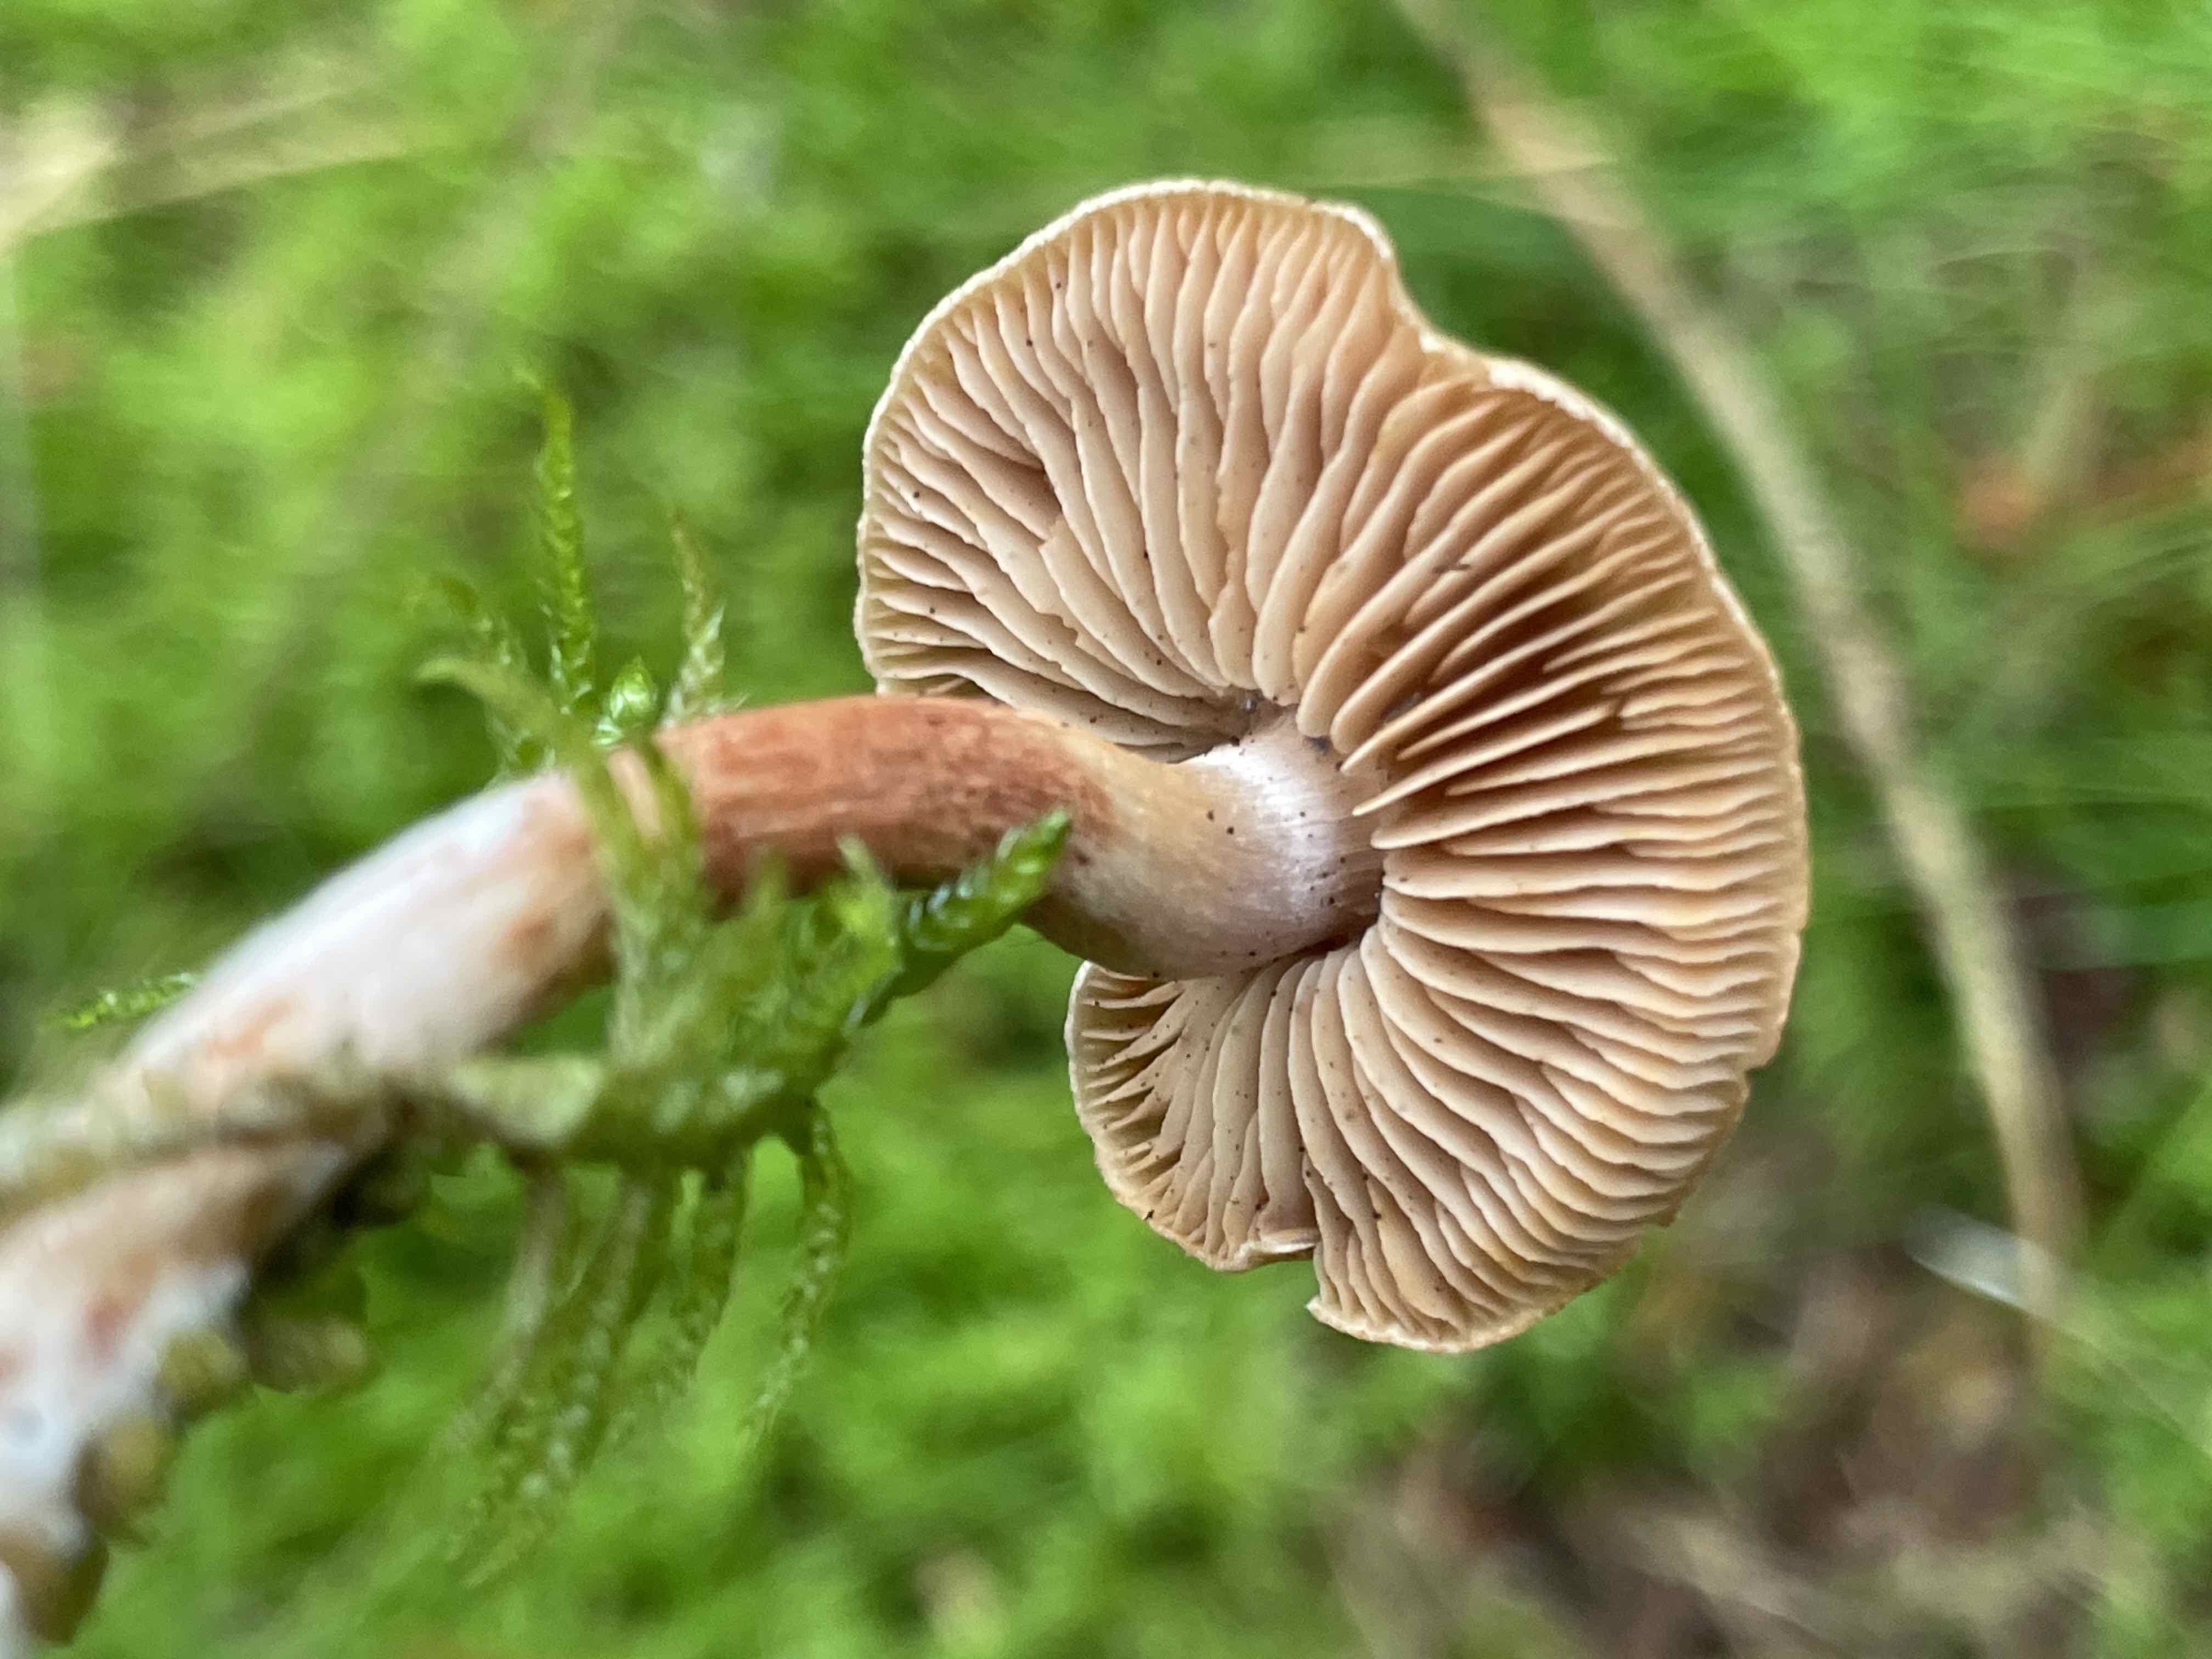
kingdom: Fungi
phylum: Basidiomycota
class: Agaricomycetes
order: Agaricales
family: Cortinariaceae
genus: Cortinarius
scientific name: Cortinarius bolaris
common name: cinnoberskællet slørhat
